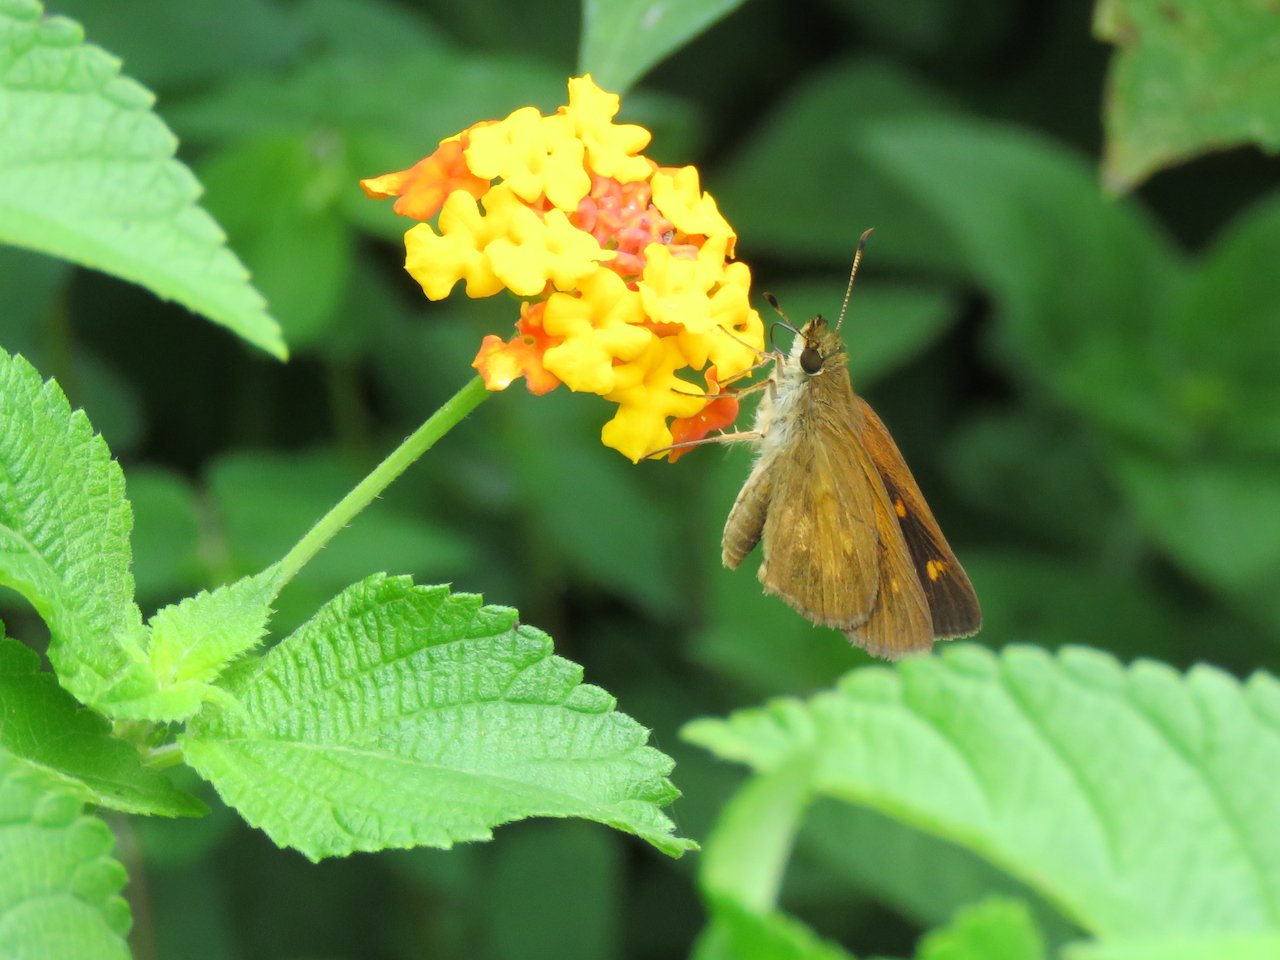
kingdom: Animalia
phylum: Arthropoda
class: Insecta
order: Lepidoptera
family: Hesperiidae
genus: Poanes
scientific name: Poanes viator
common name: Broad-winged Skipper
